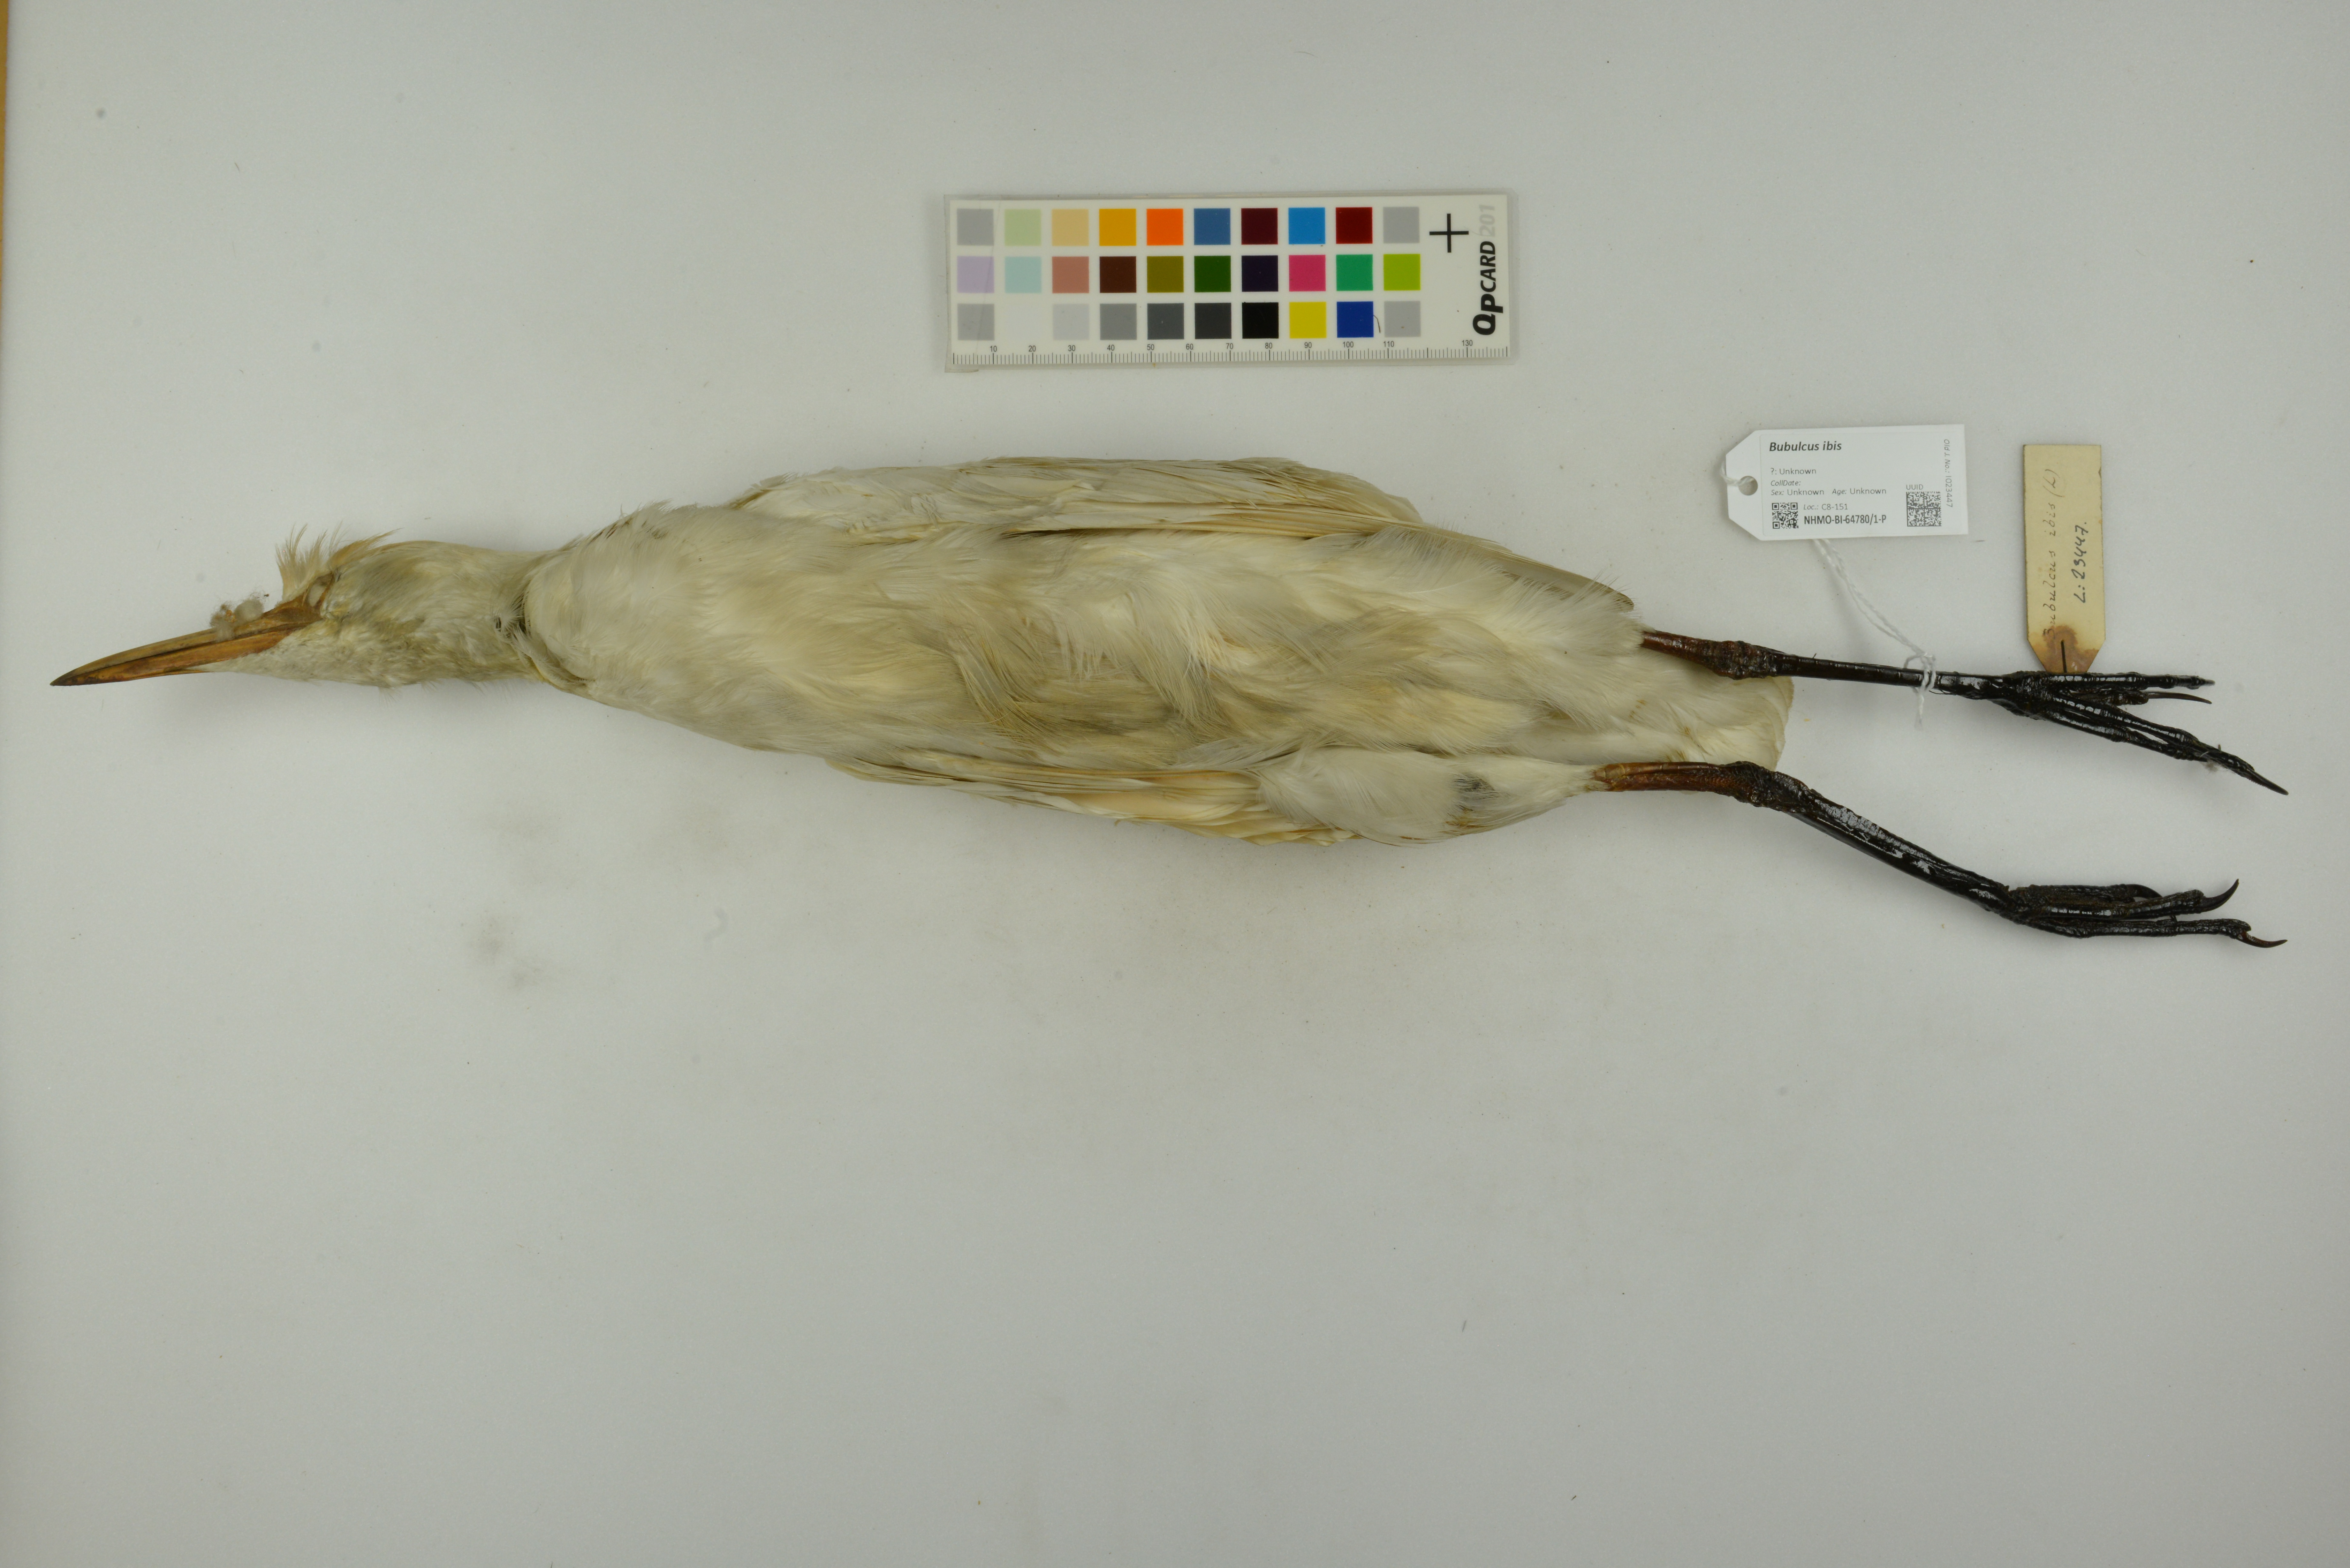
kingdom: Animalia
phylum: Chordata
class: Aves
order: Pelecaniformes
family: Ardeidae
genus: Bubulcus
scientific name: Bubulcus ibis
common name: Cattle egret
